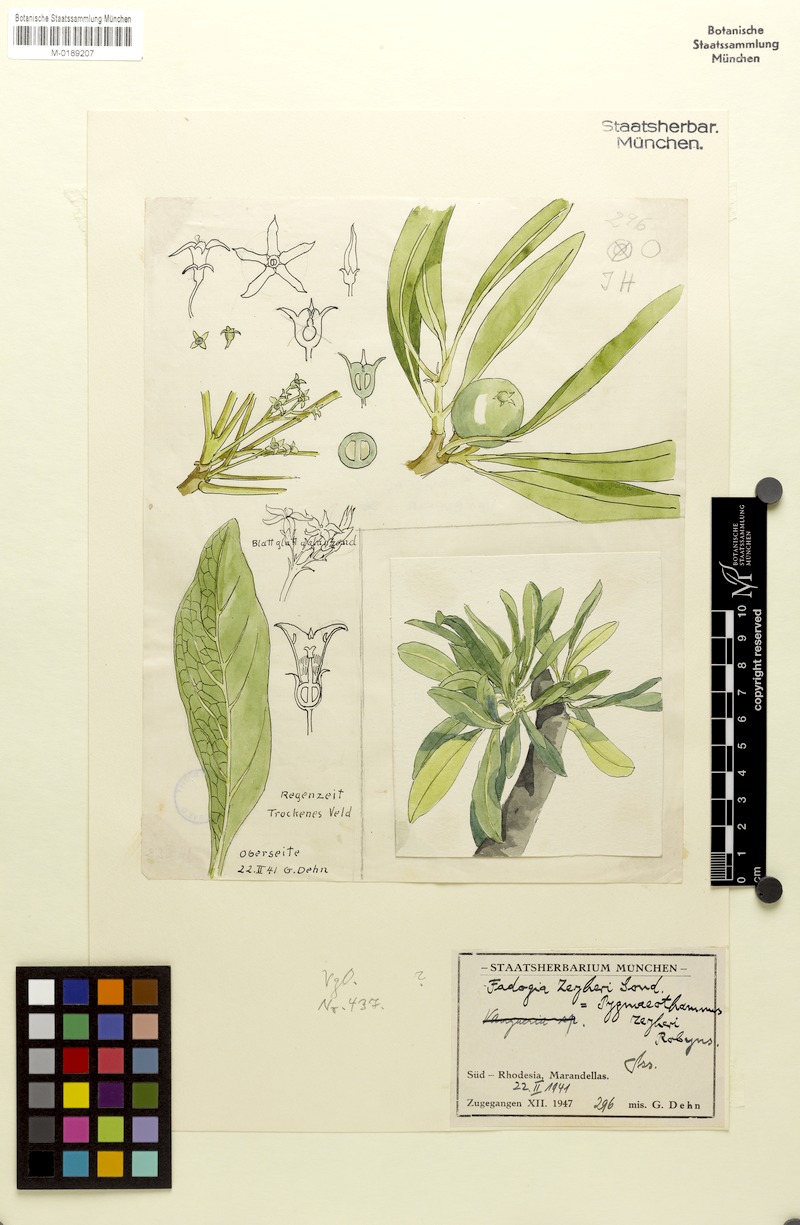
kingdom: Plantae
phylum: Tracheophyta
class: Magnoliopsida
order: Gentianales
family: Rubiaceae
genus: Pygmaeothamnus
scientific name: Pygmaeothamnus zeyheri
